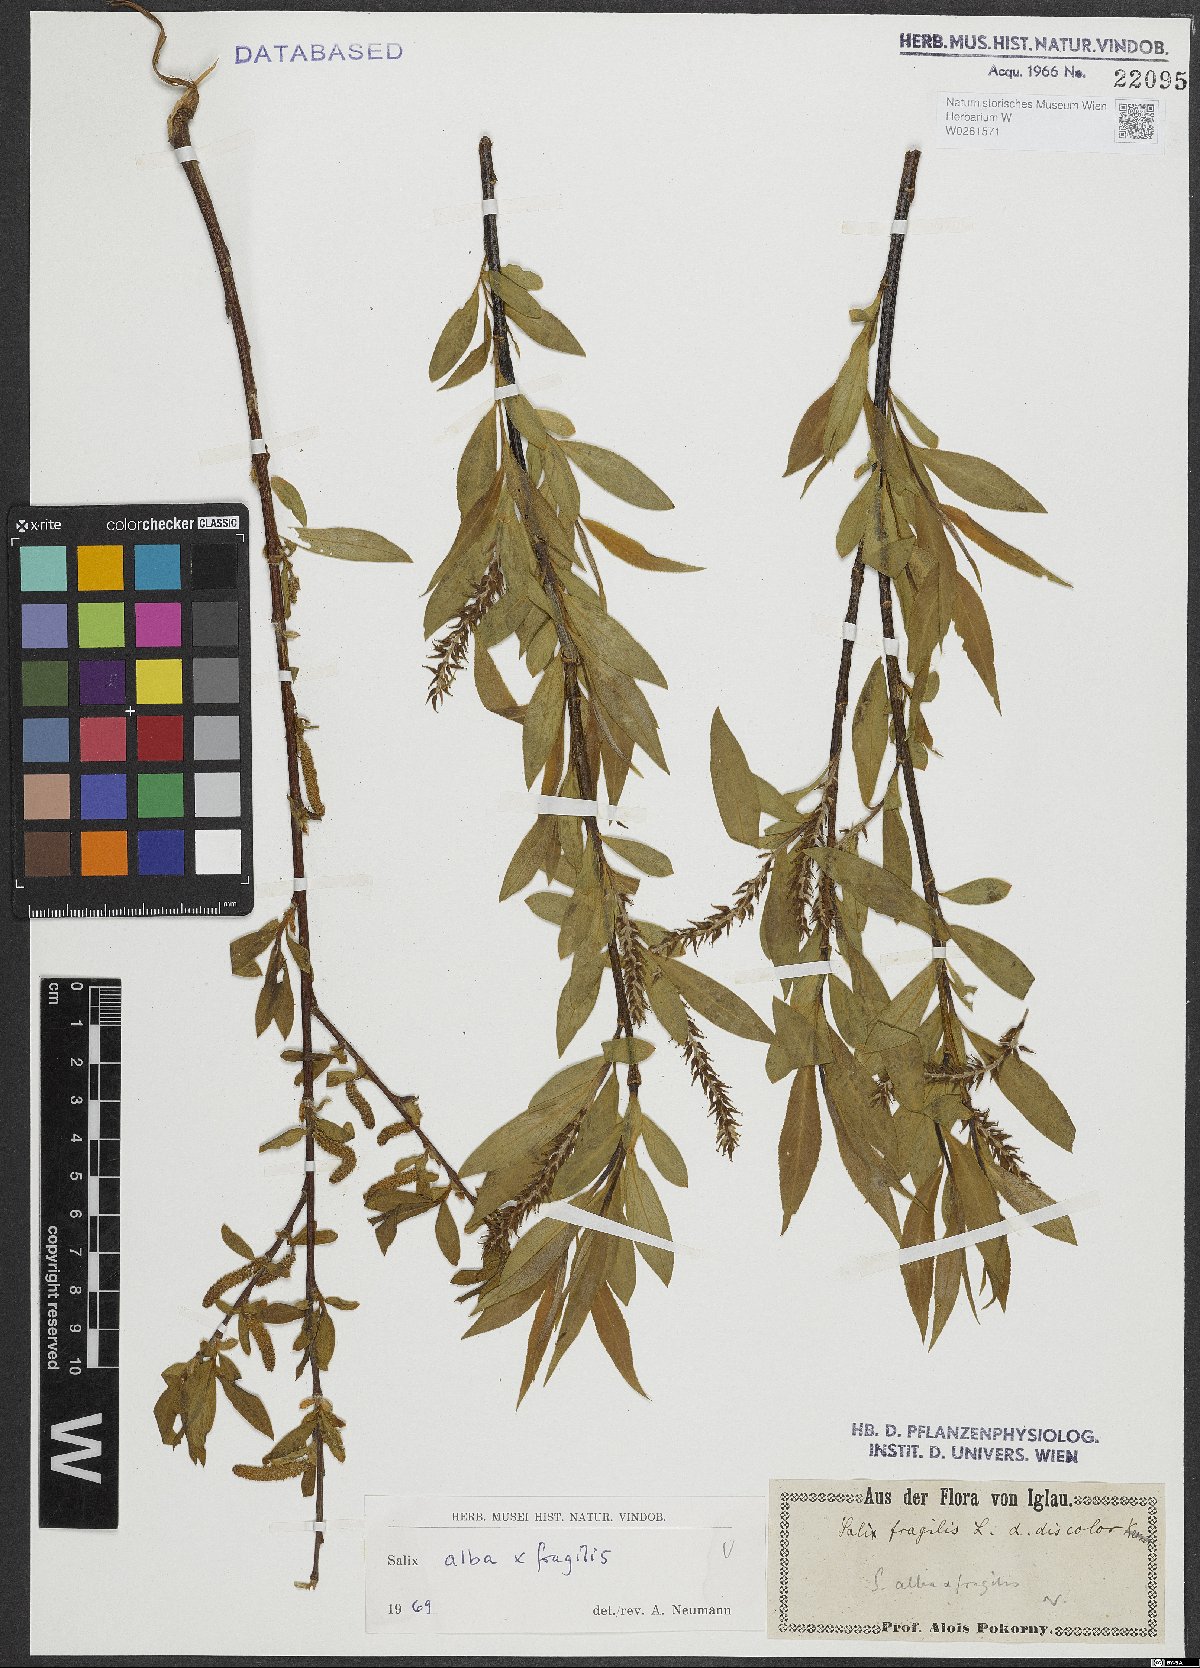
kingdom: Plantae
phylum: Tracheophyta
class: Magnoliopsida
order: Malpighiales
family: Salicaceae
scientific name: Salicaceae
